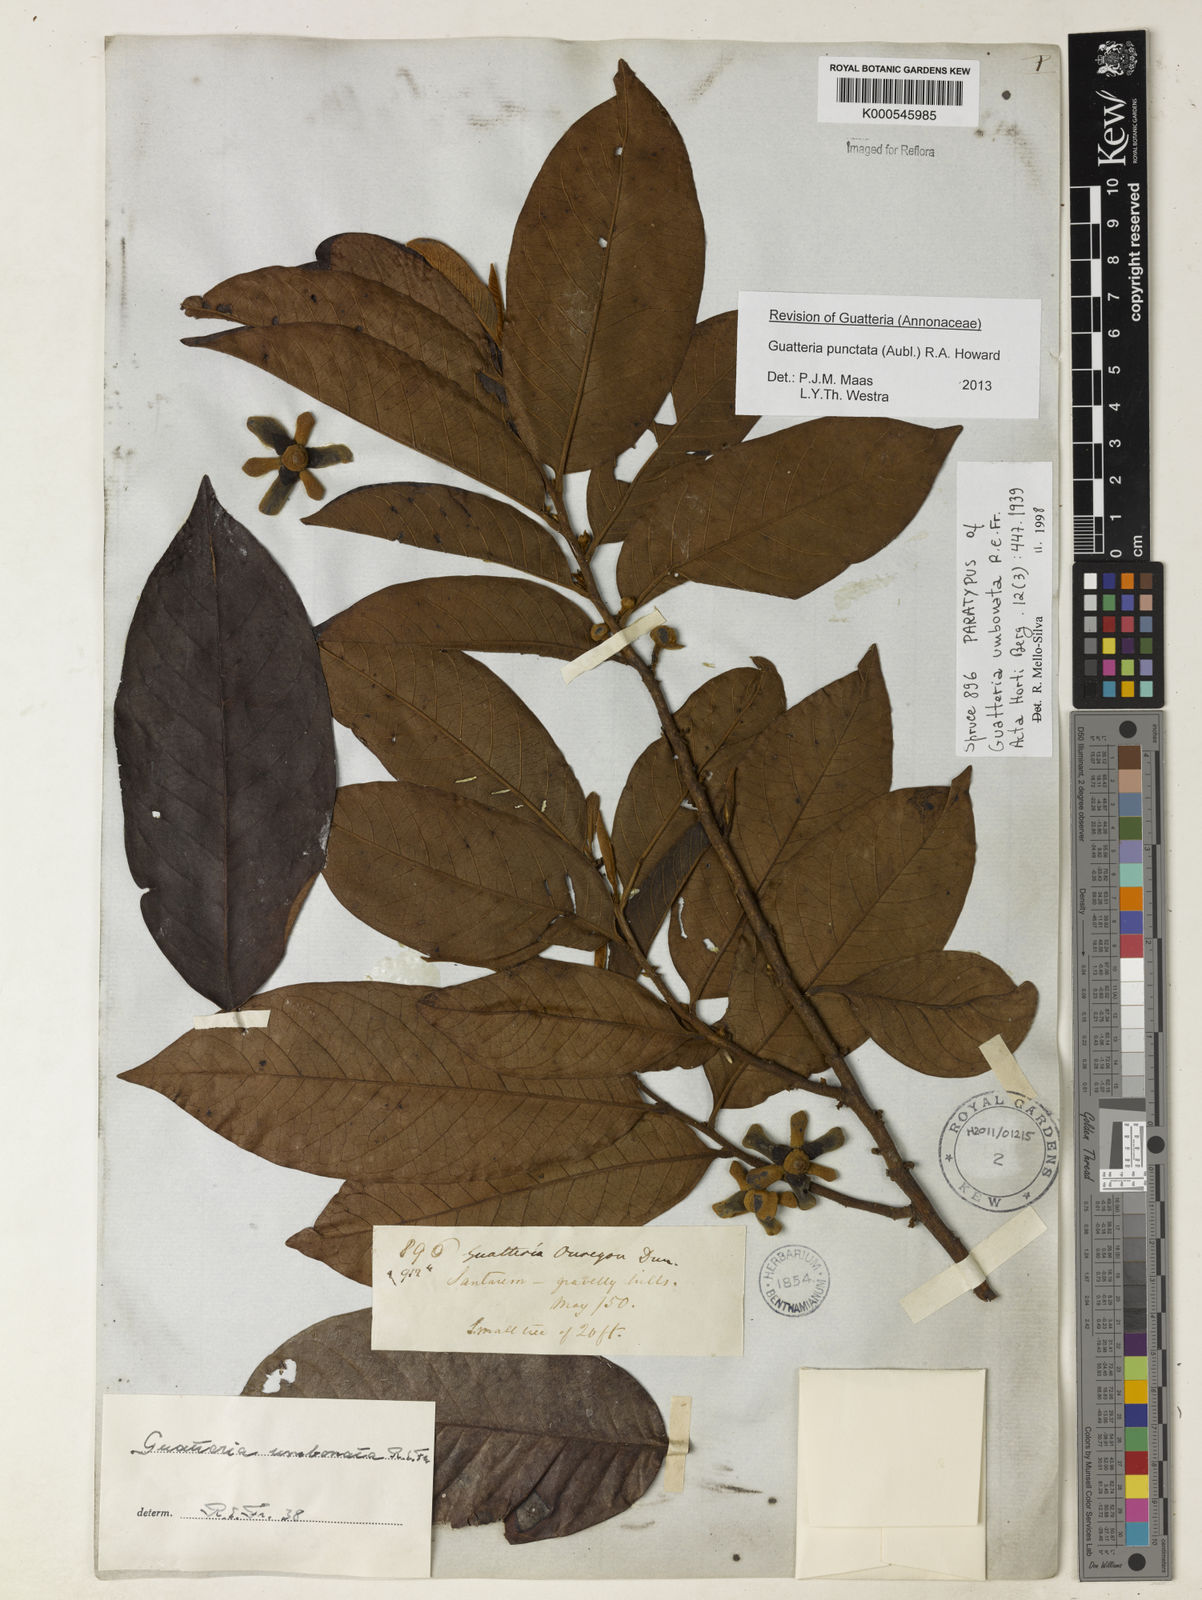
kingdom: Plantae
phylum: Tracheophyta
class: Magnoliopsida
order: Magnoliales
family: Annonaceae
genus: Guatteria
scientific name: Guatteria umbonata
